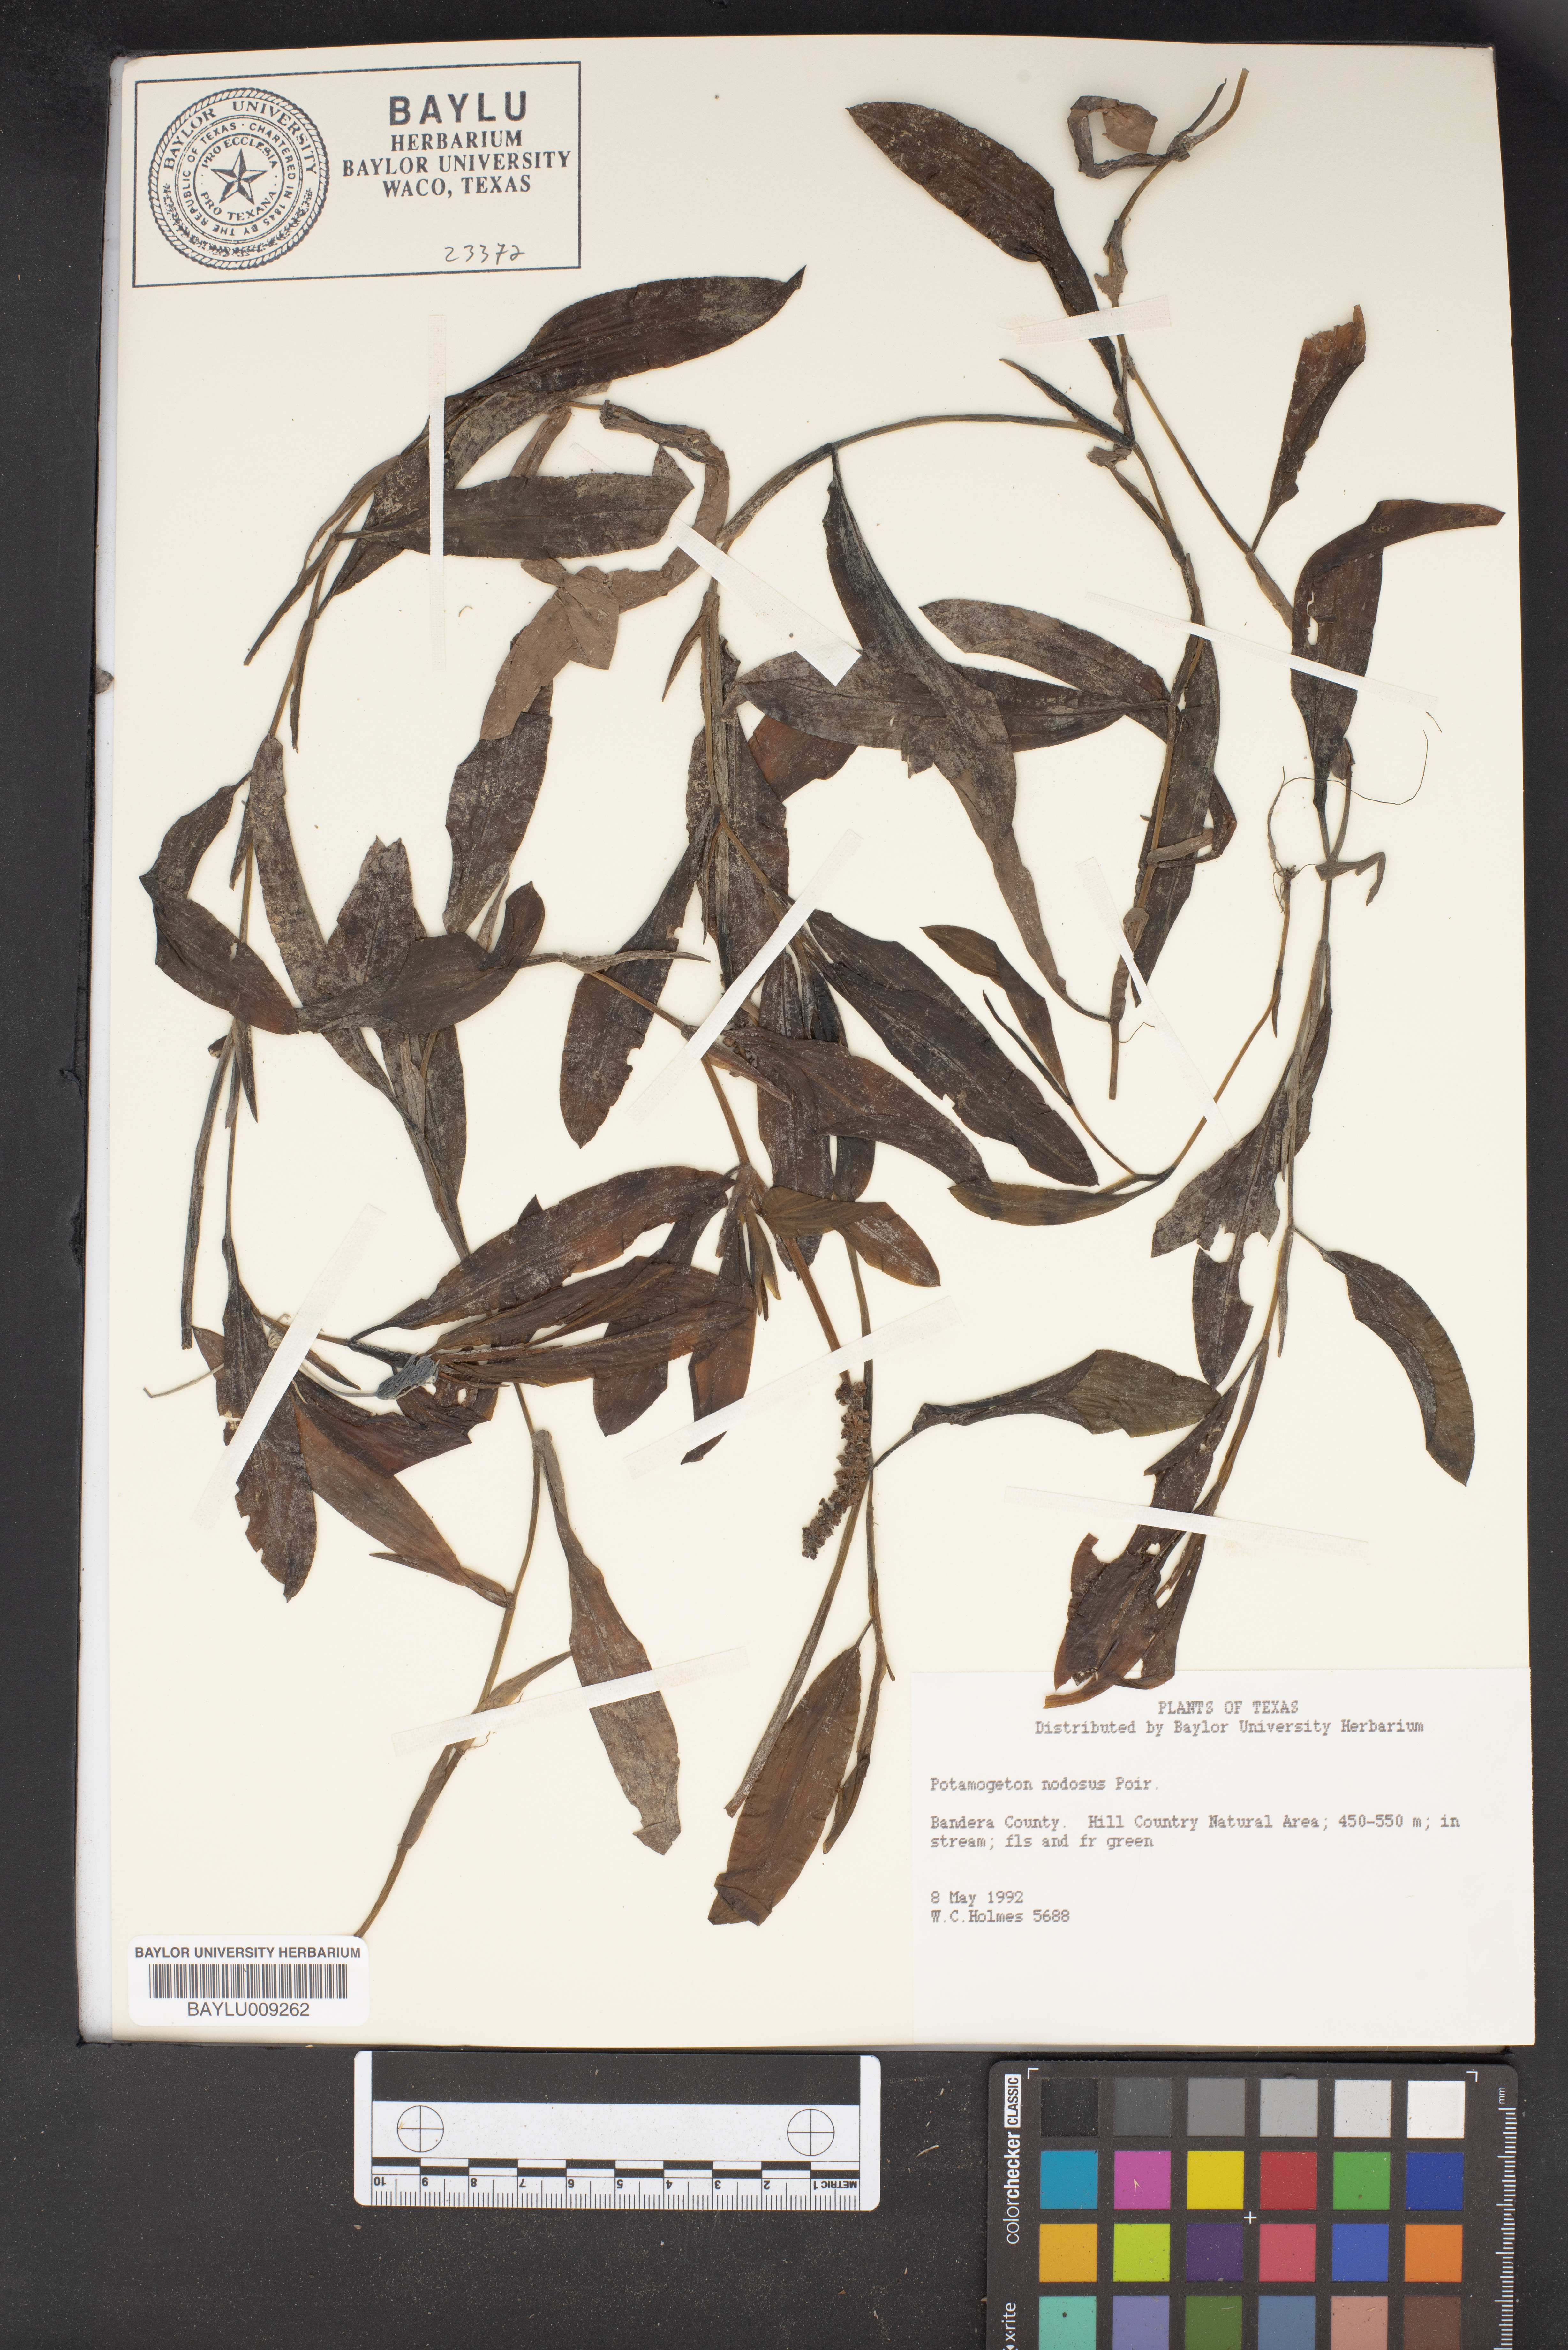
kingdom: Plantae
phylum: Tracheophyta
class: Liliopsida
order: Alismatales
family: Potamogetonaceae
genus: Potamogeton
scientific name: Potamogeton nodosus
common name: Loddon pondweed
